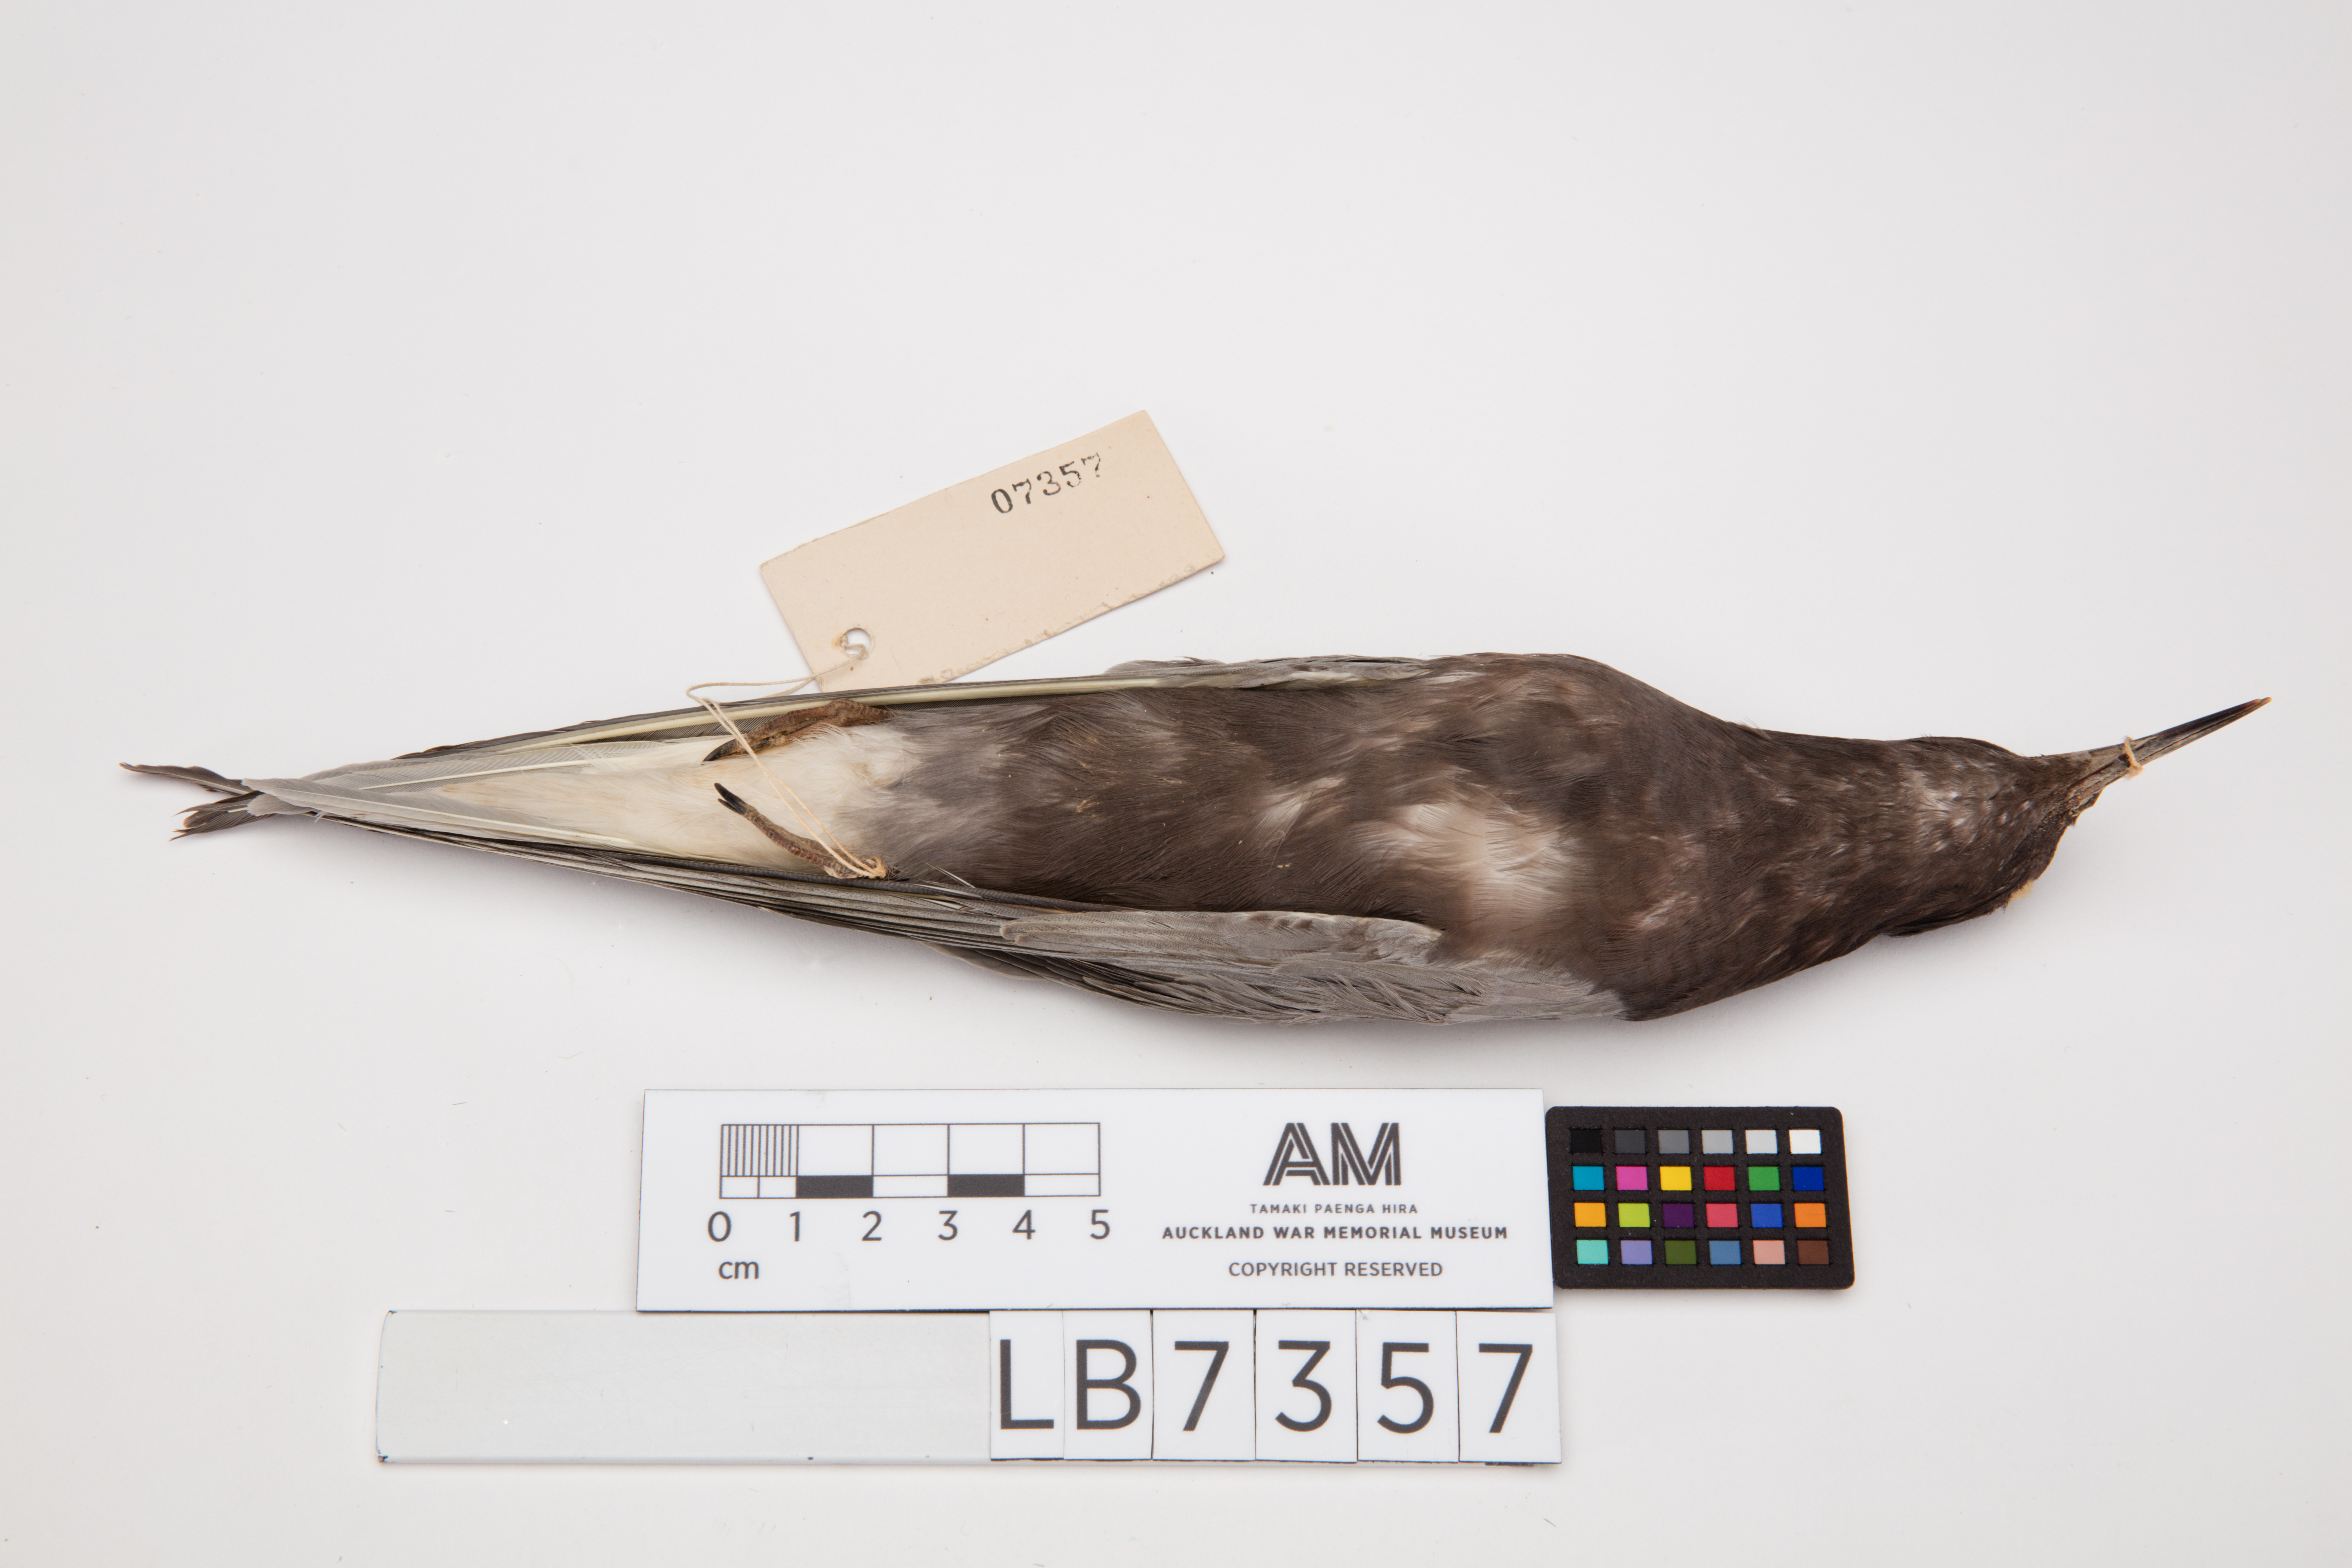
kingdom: Animalia
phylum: Chordata
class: Aves
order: Charadriiformes
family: Laridae
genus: Chlidonias
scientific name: Chlidonias niger
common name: Black tern
